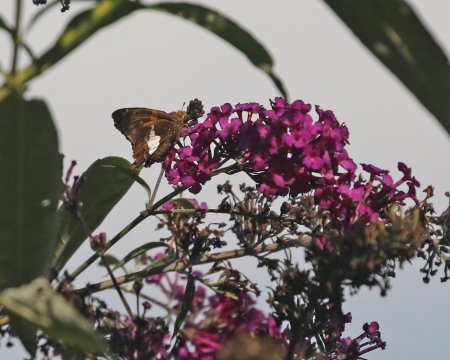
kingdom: Animalia
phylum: Arthropoda
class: Insecta
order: Lepidoptera
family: Hesperiidae
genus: Epargyreus
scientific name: Epargyreus clarus
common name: Silver-spotted Skipper
